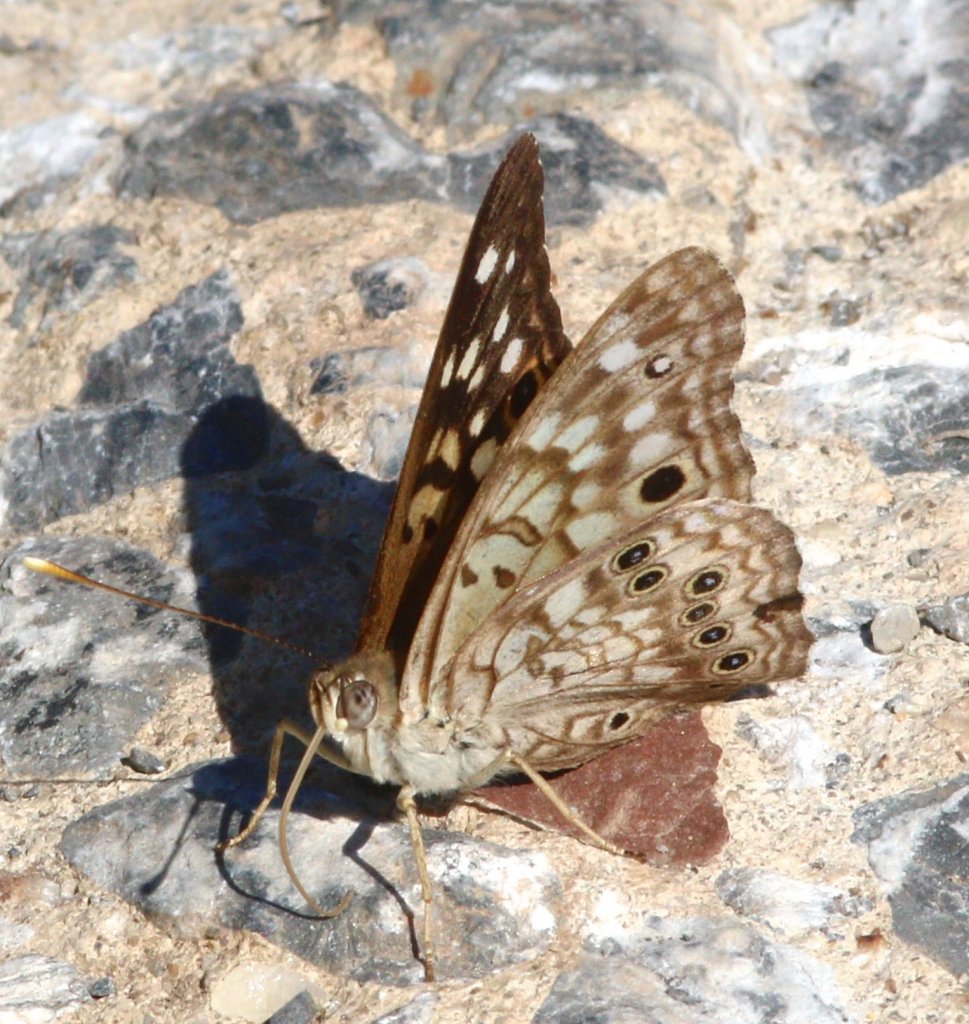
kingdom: Animalia
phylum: Arthropoda
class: Insecta
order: Lepidoptera
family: Nymphalidae
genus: Asterocampa
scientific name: Asterocampa celtis
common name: Hackberry Emperor
